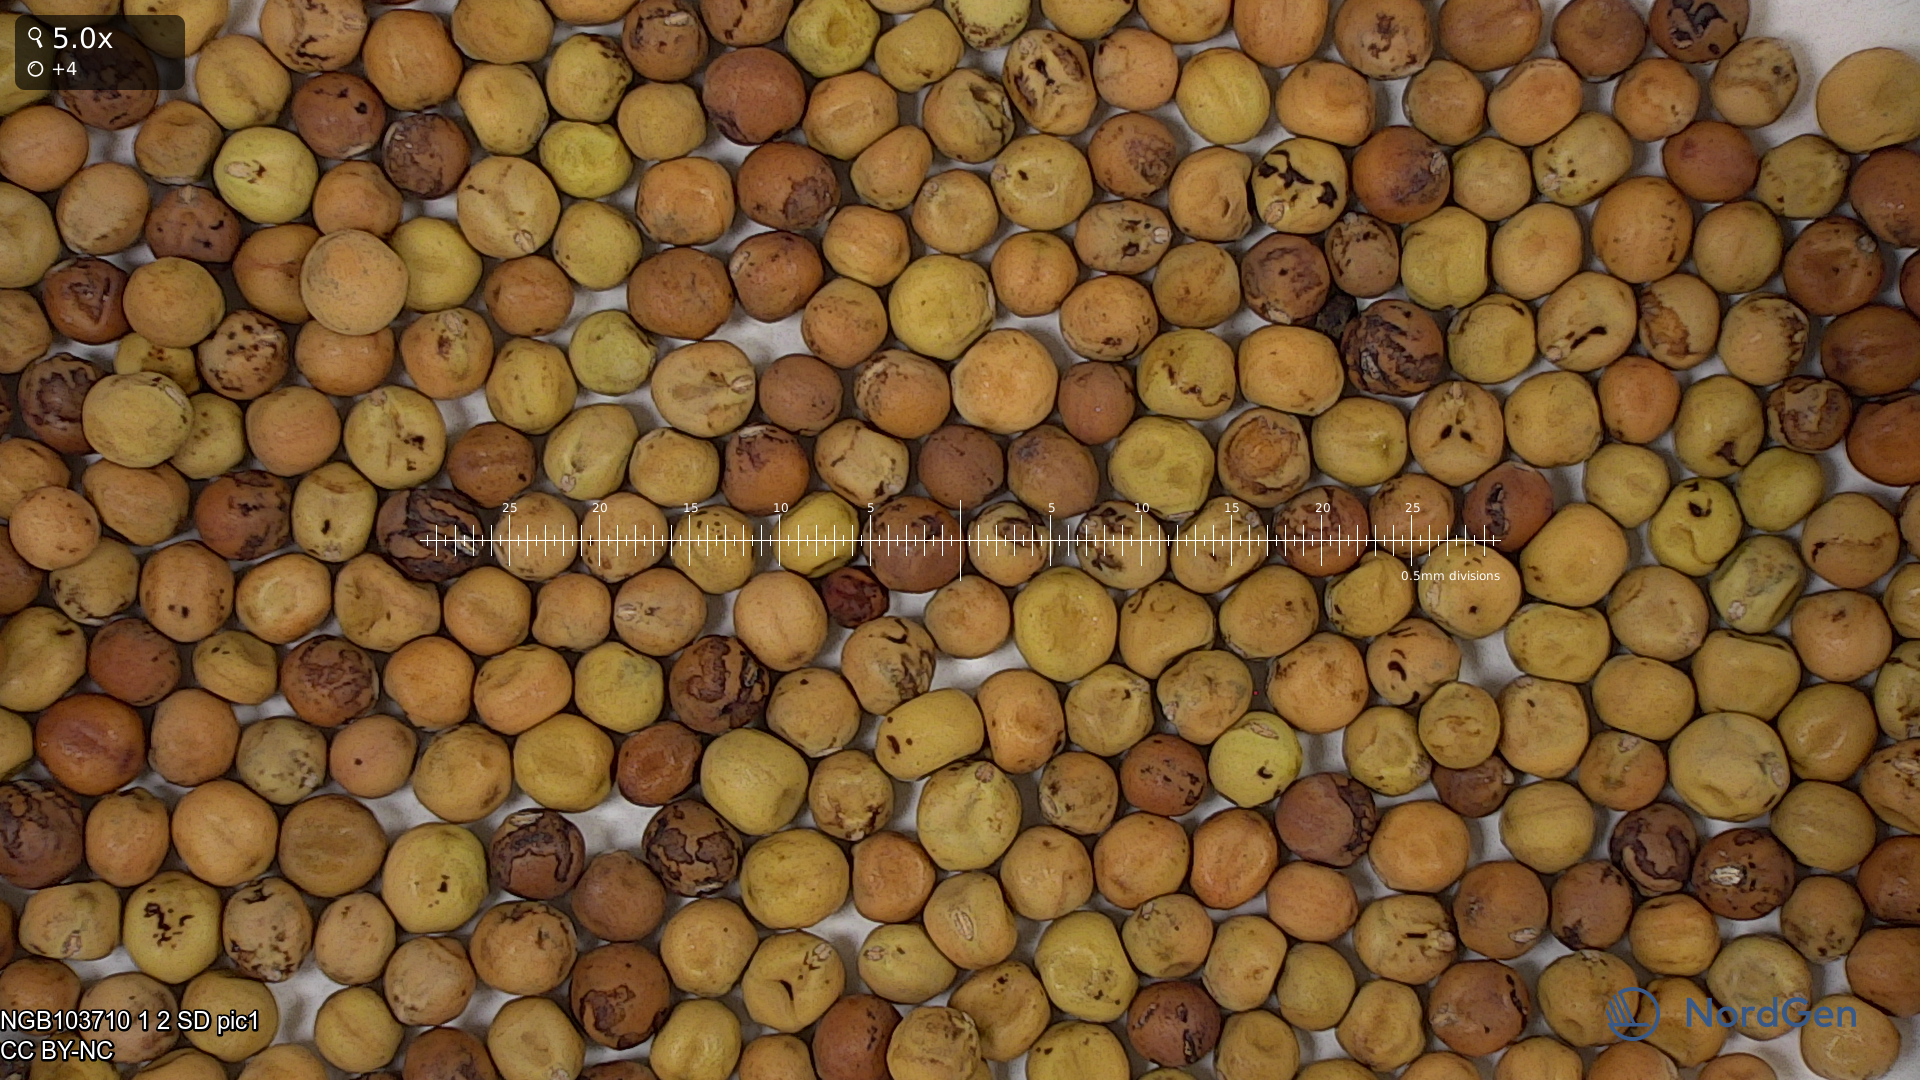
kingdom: Plantae
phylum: Tracheophyta
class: Magnoliopsida
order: Fabales
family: Fabaceae
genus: Lathyrus
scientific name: Lathyrus oleraceus
